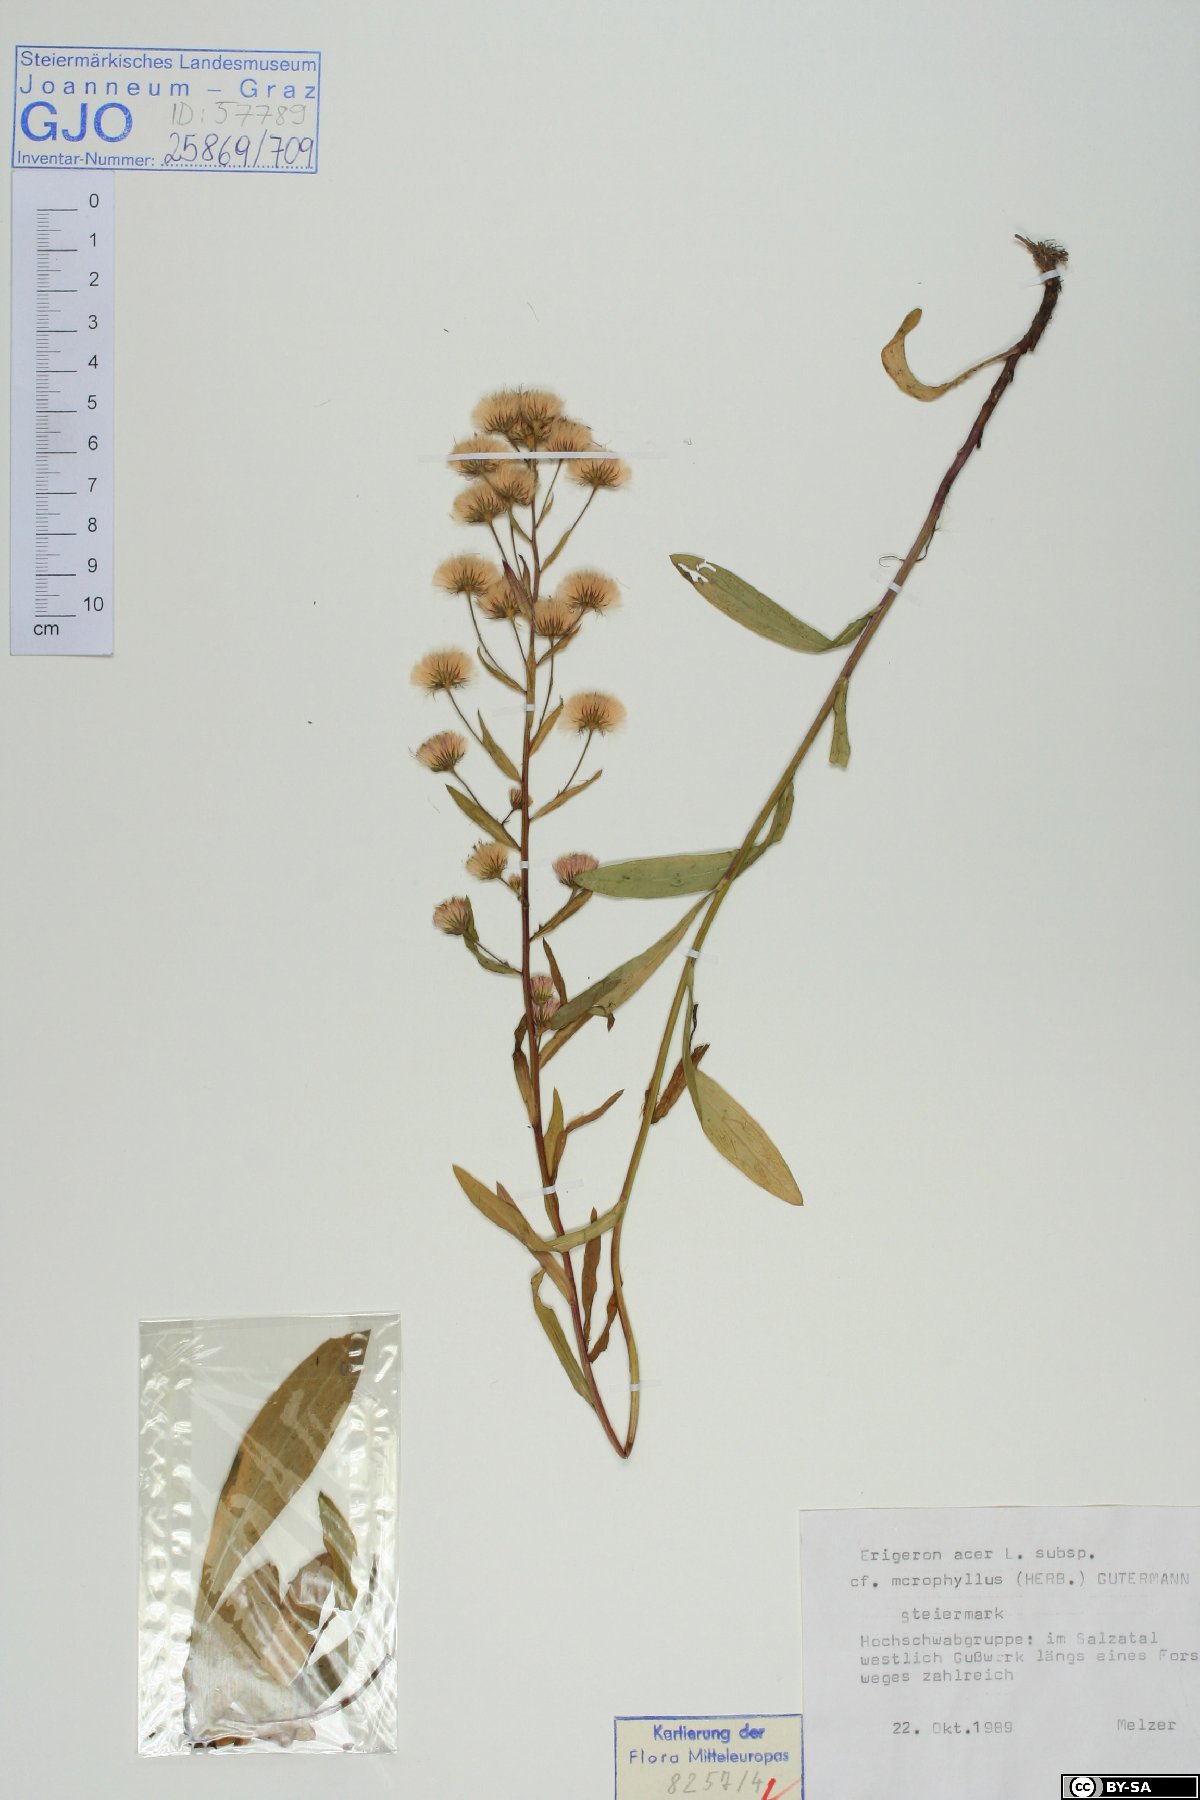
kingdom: Plantae
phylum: Tracheophyta
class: Magnoliopsida
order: Asterales
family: Asteraceae
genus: Erigeron
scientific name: Erigeron angulosus
